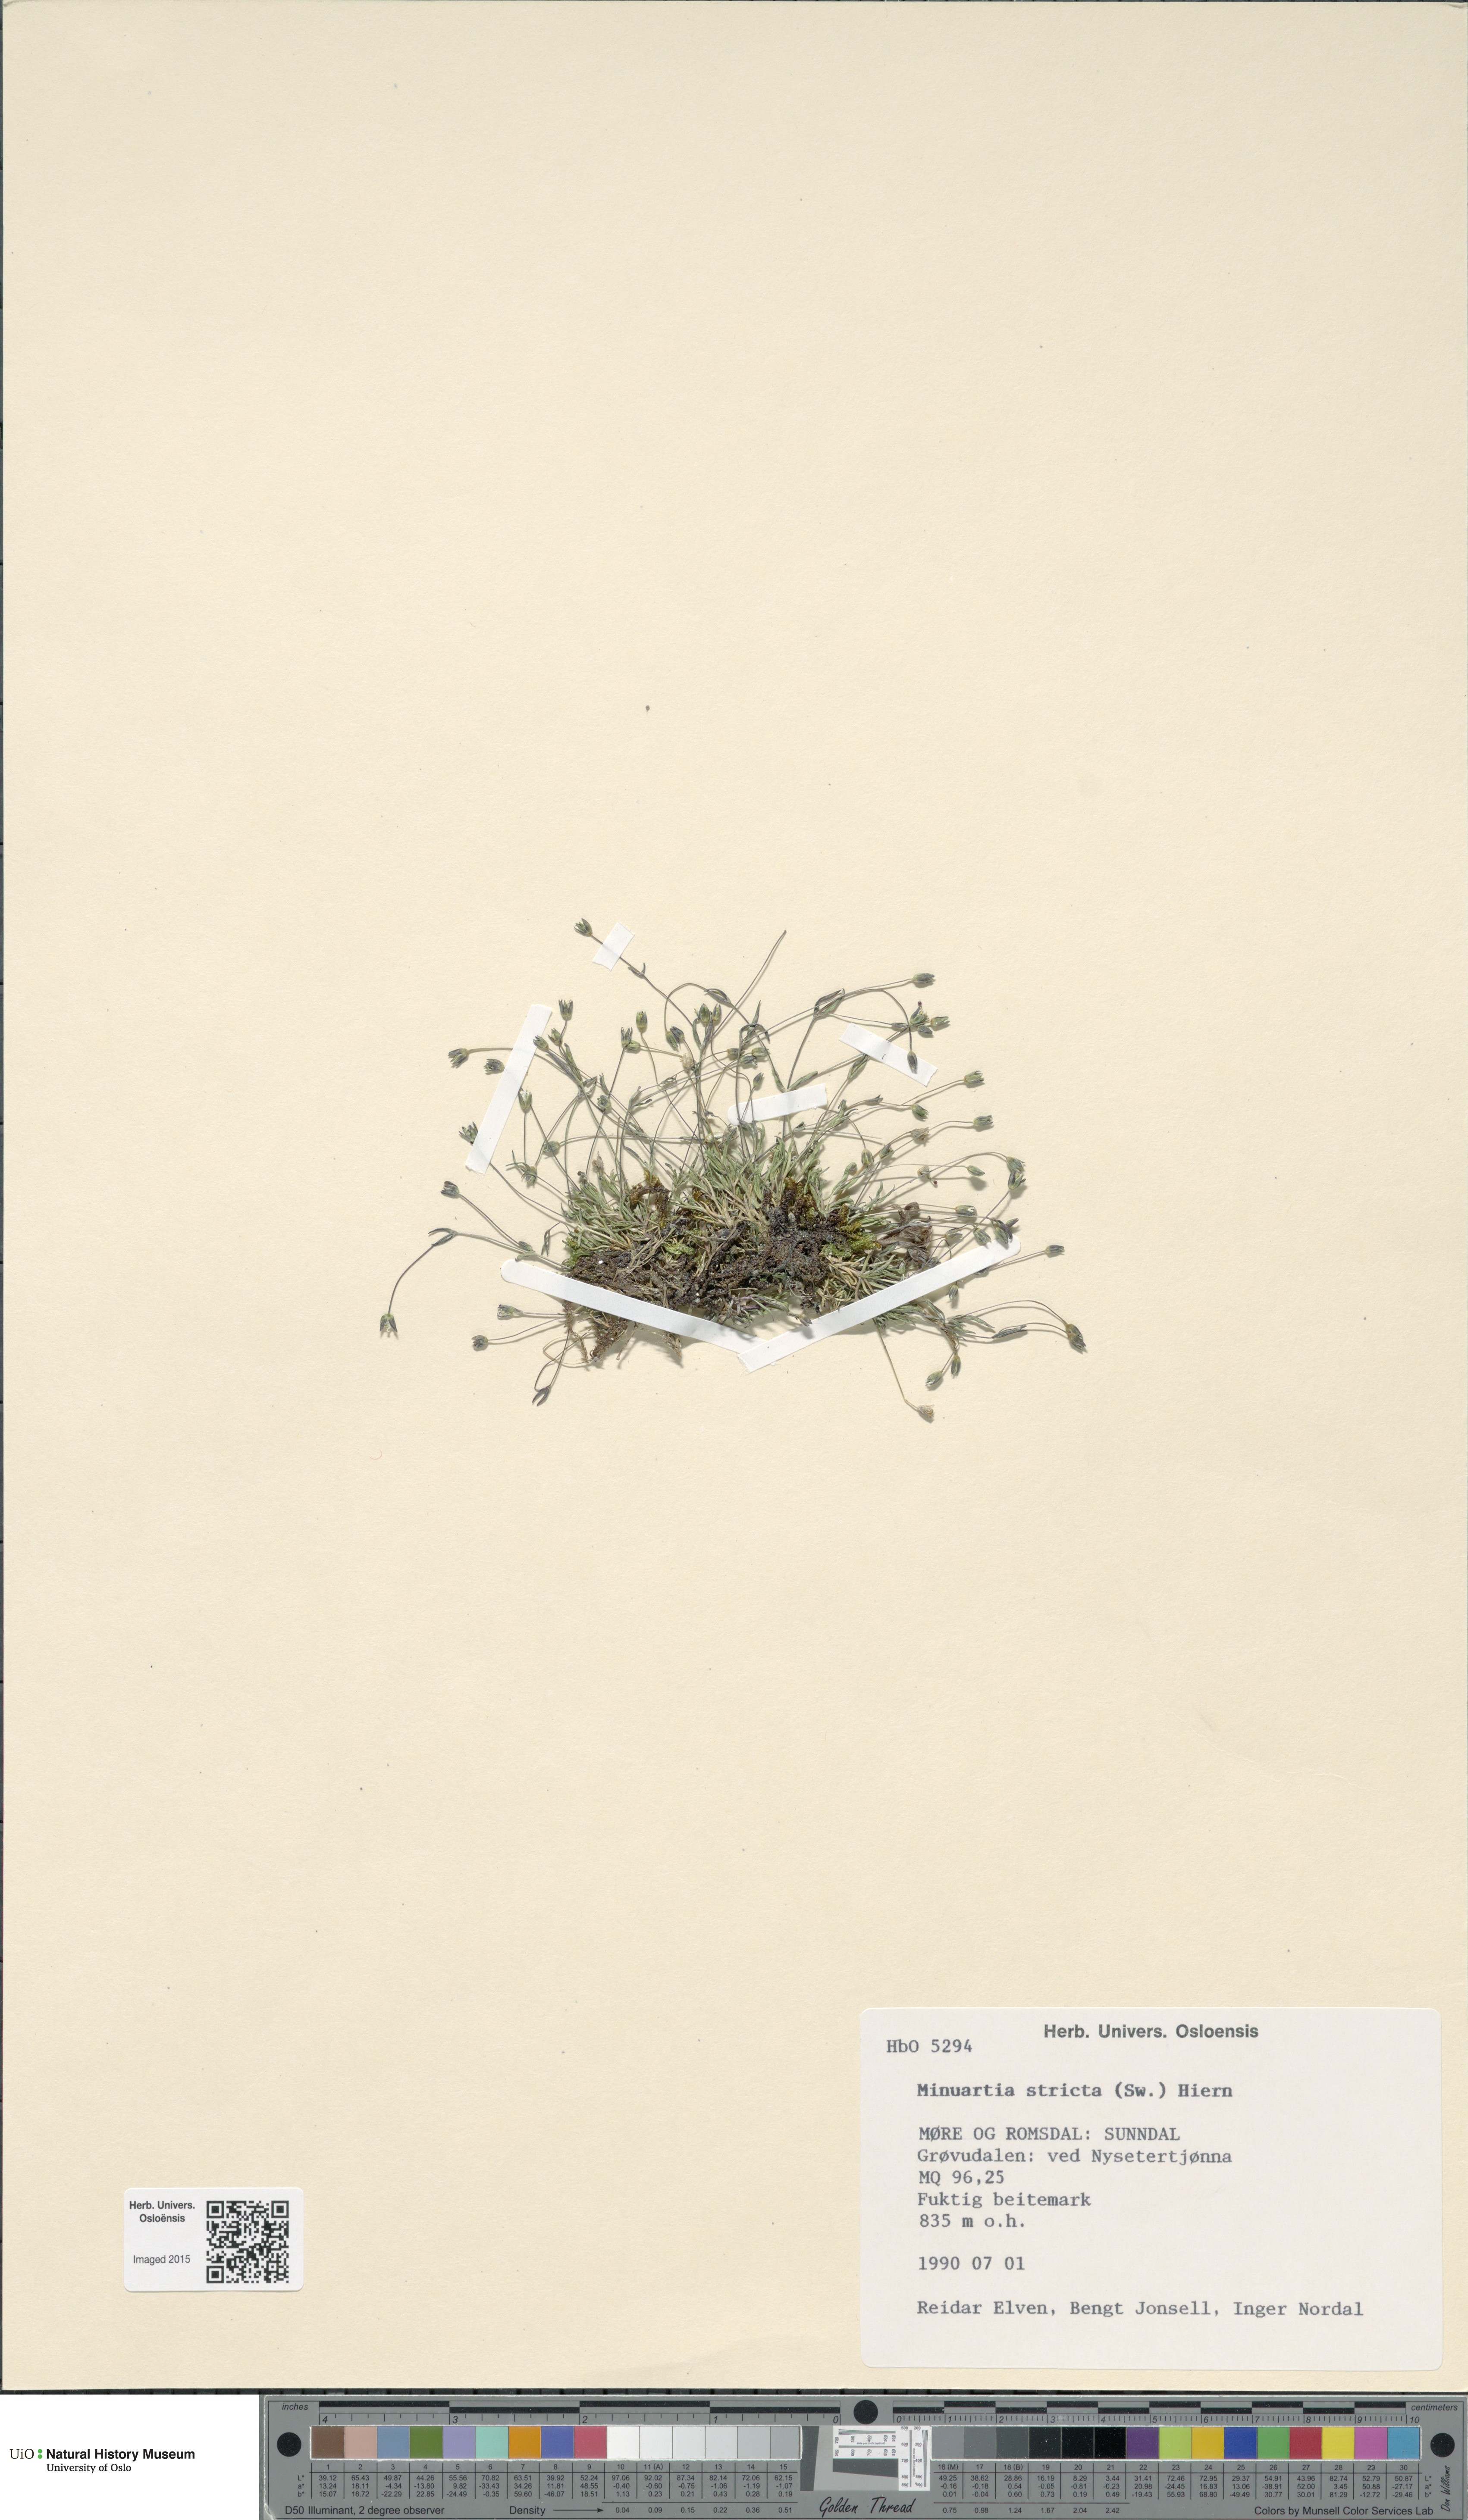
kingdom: Plantae
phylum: Tracheophyta
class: Magnoliopsida
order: Caryophyllales
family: Caryophyllaceae
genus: Sabulina
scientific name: Sabulina stricta
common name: Bog sandwort
